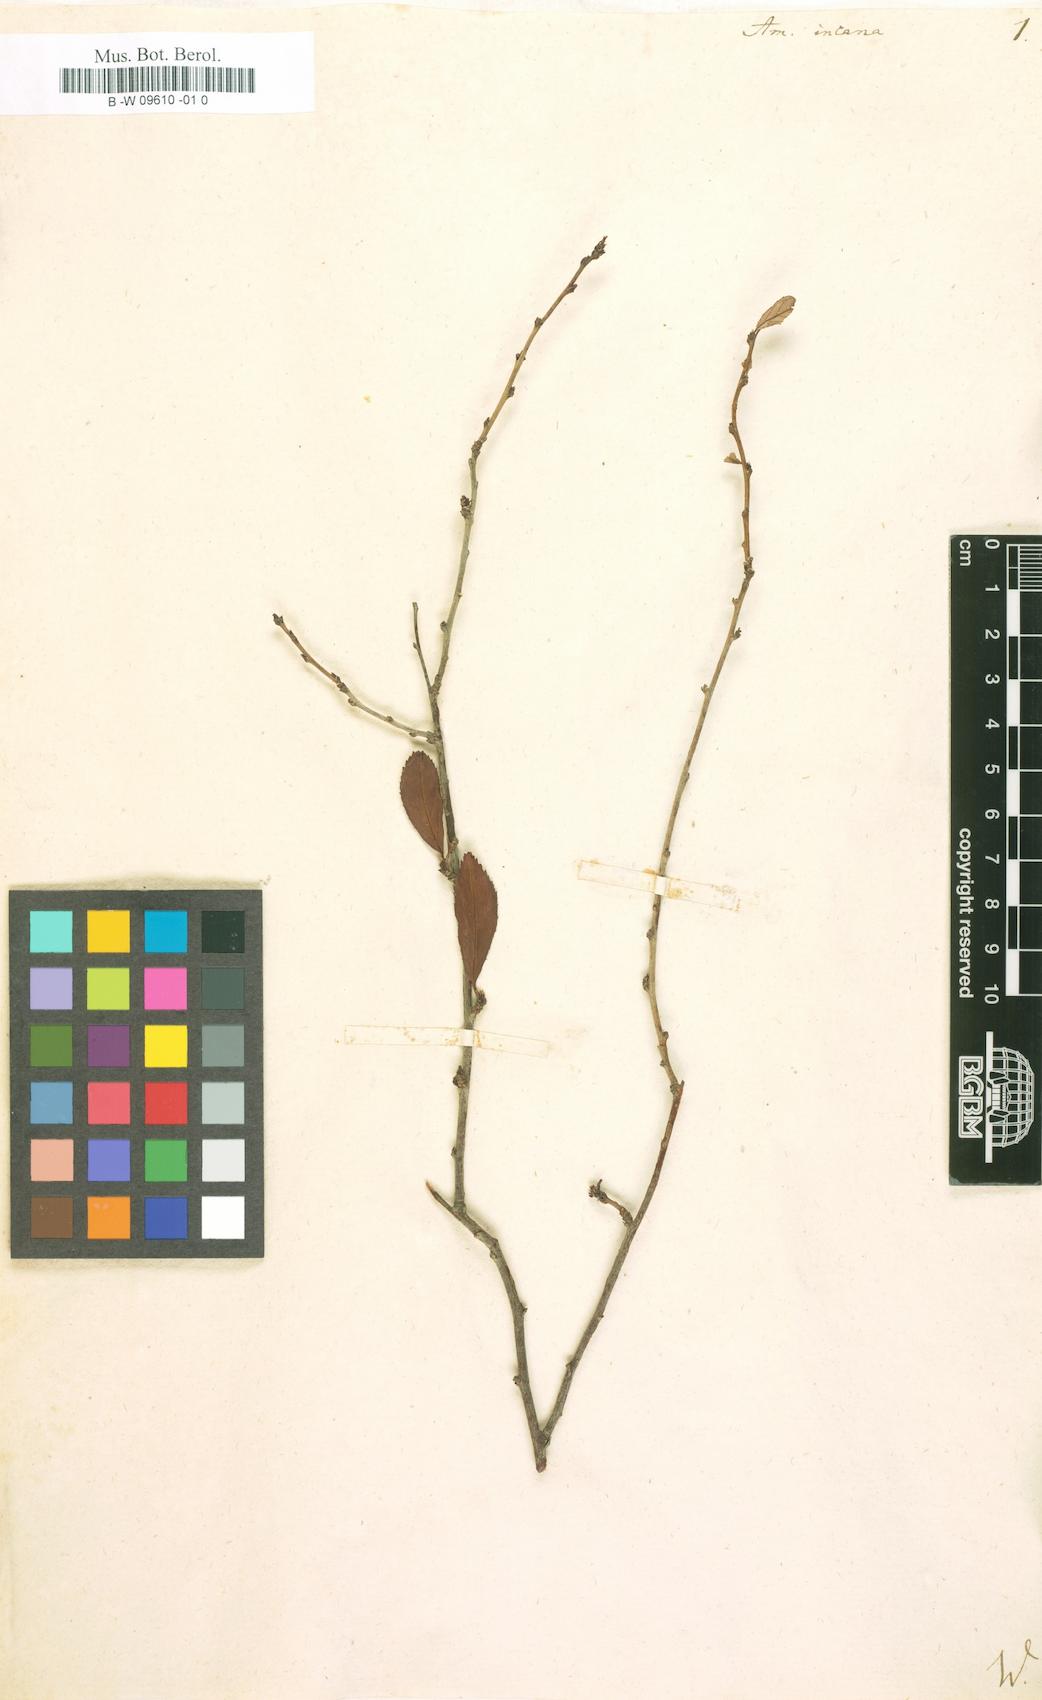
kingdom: Plantae
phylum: Tracheophyta
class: Magnoliopsida
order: Rosales
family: Rosaceae
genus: Prunus
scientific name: Prunus
